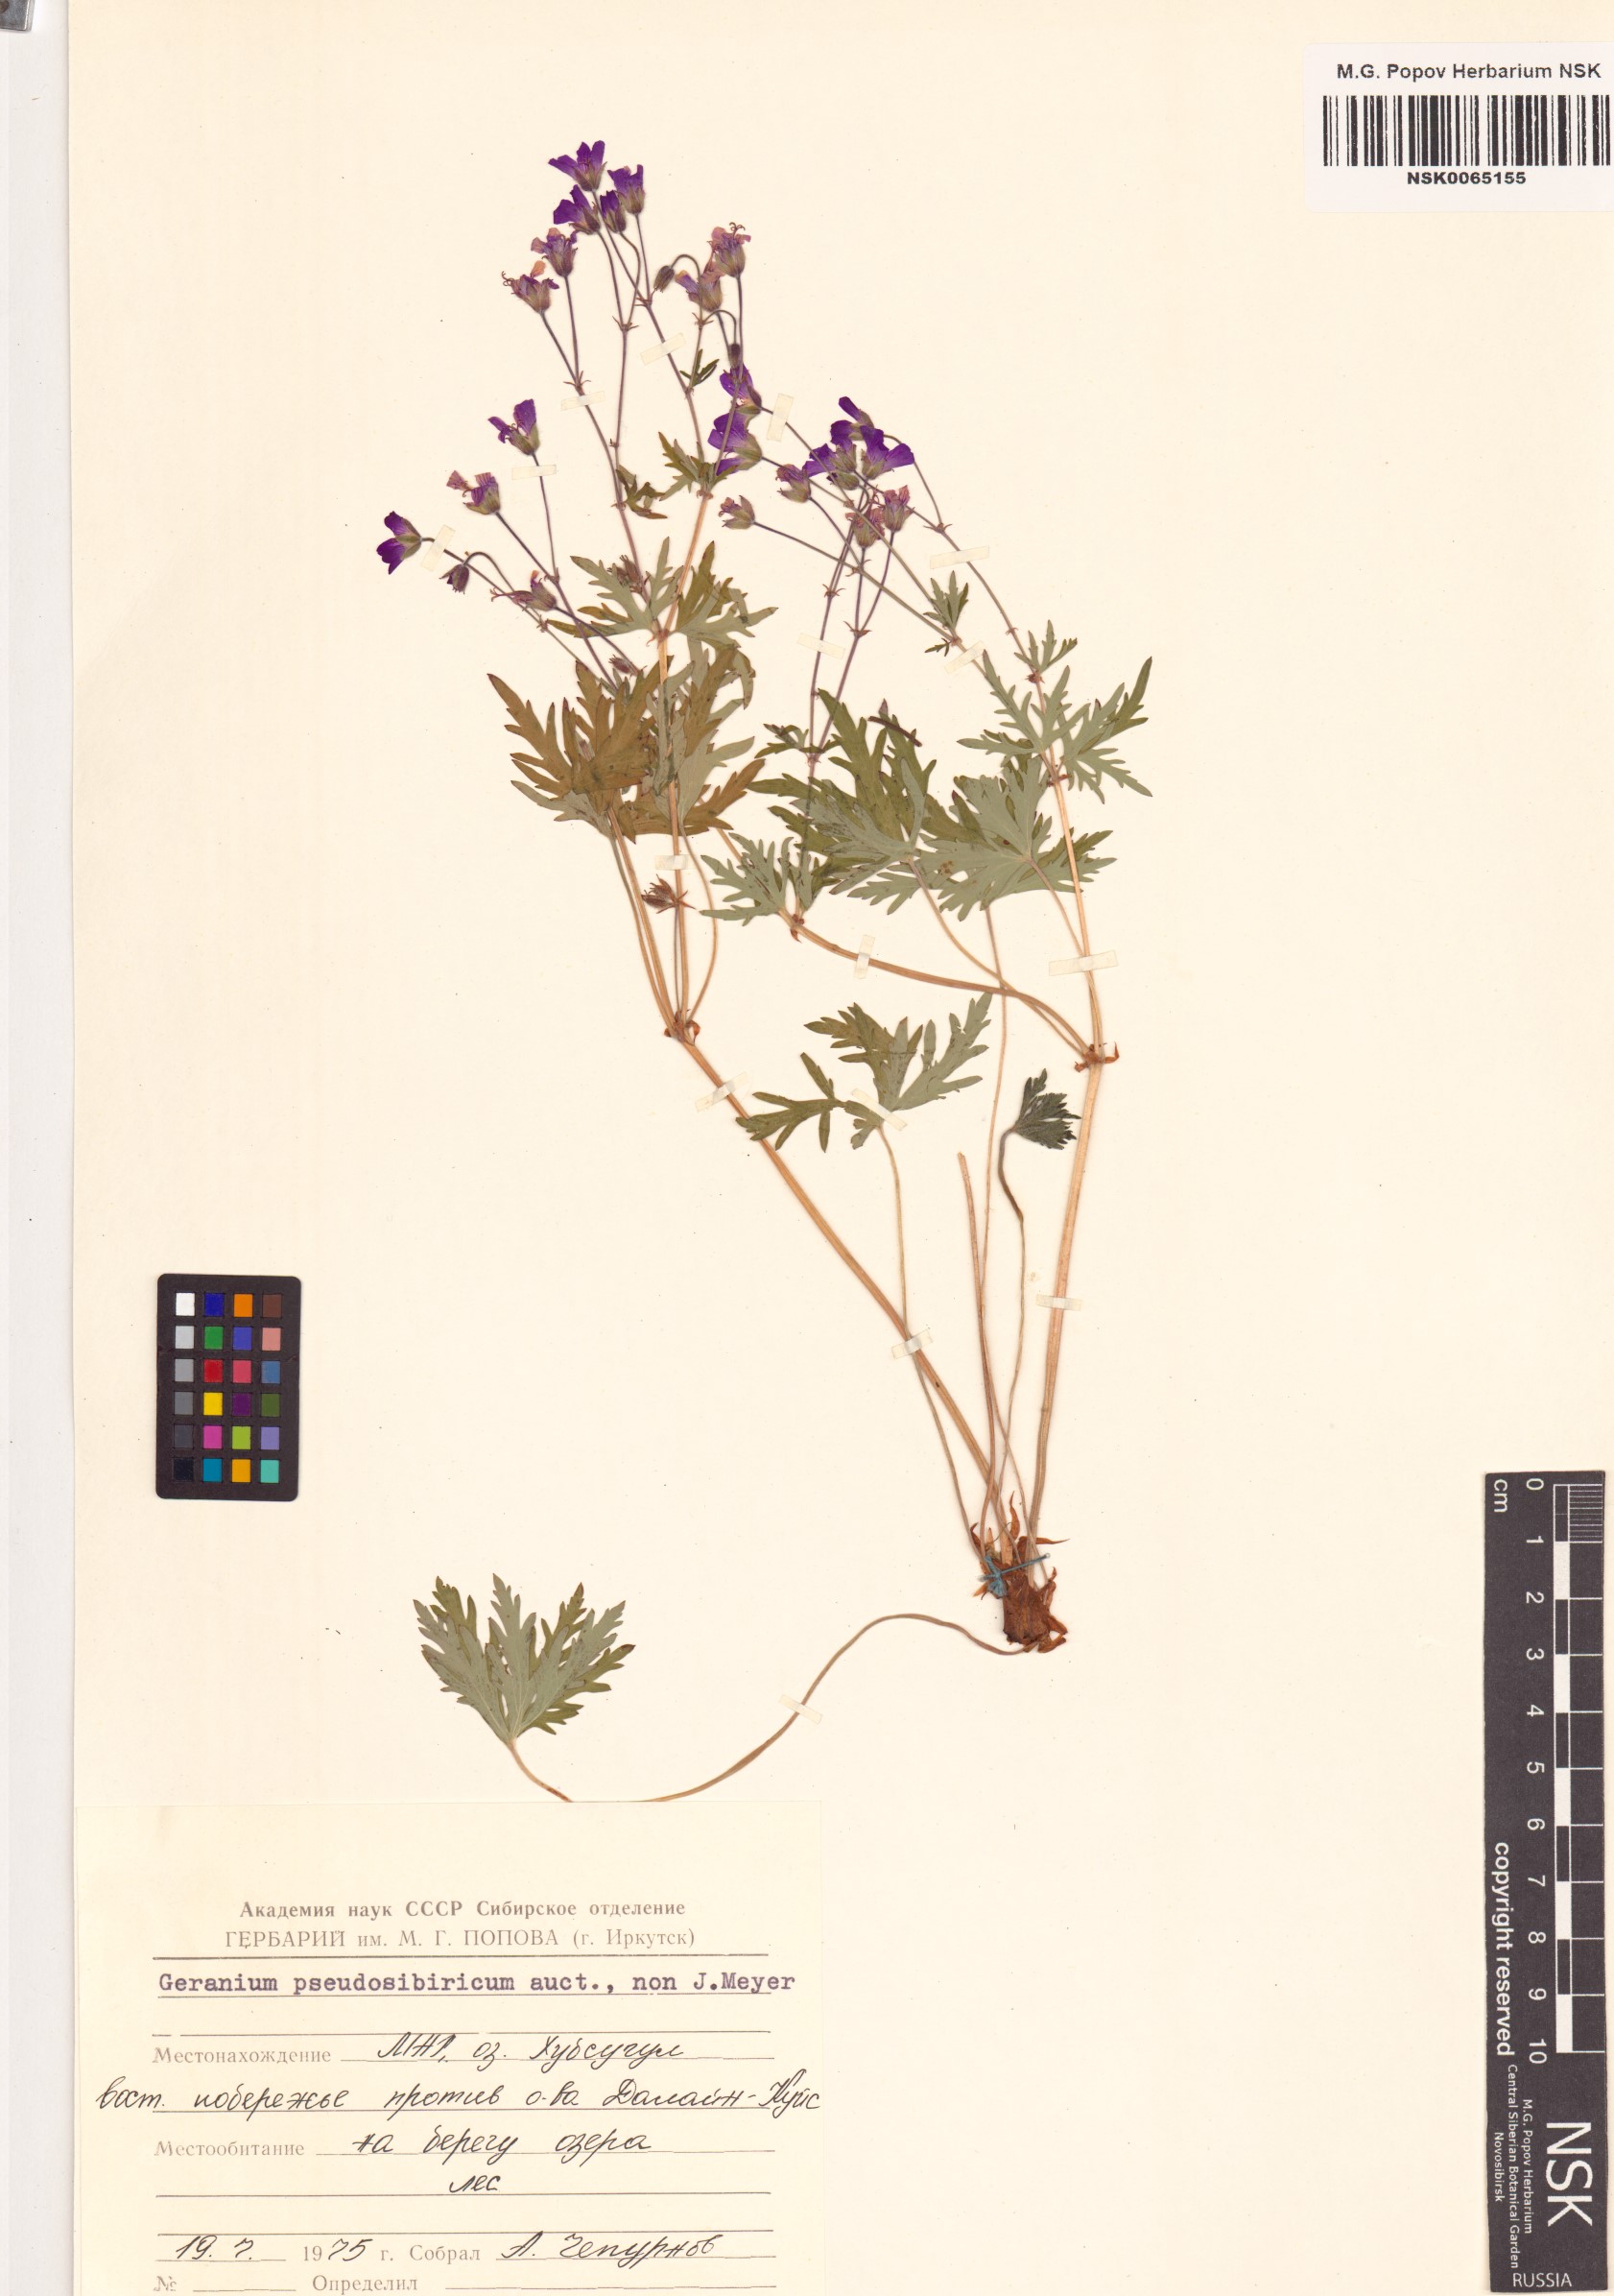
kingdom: Plantae
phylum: Tracheophyta
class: Magnoliopsida
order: Geraniales
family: Geraniaceae
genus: Geranium
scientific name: Geranium pseudosibiricum
